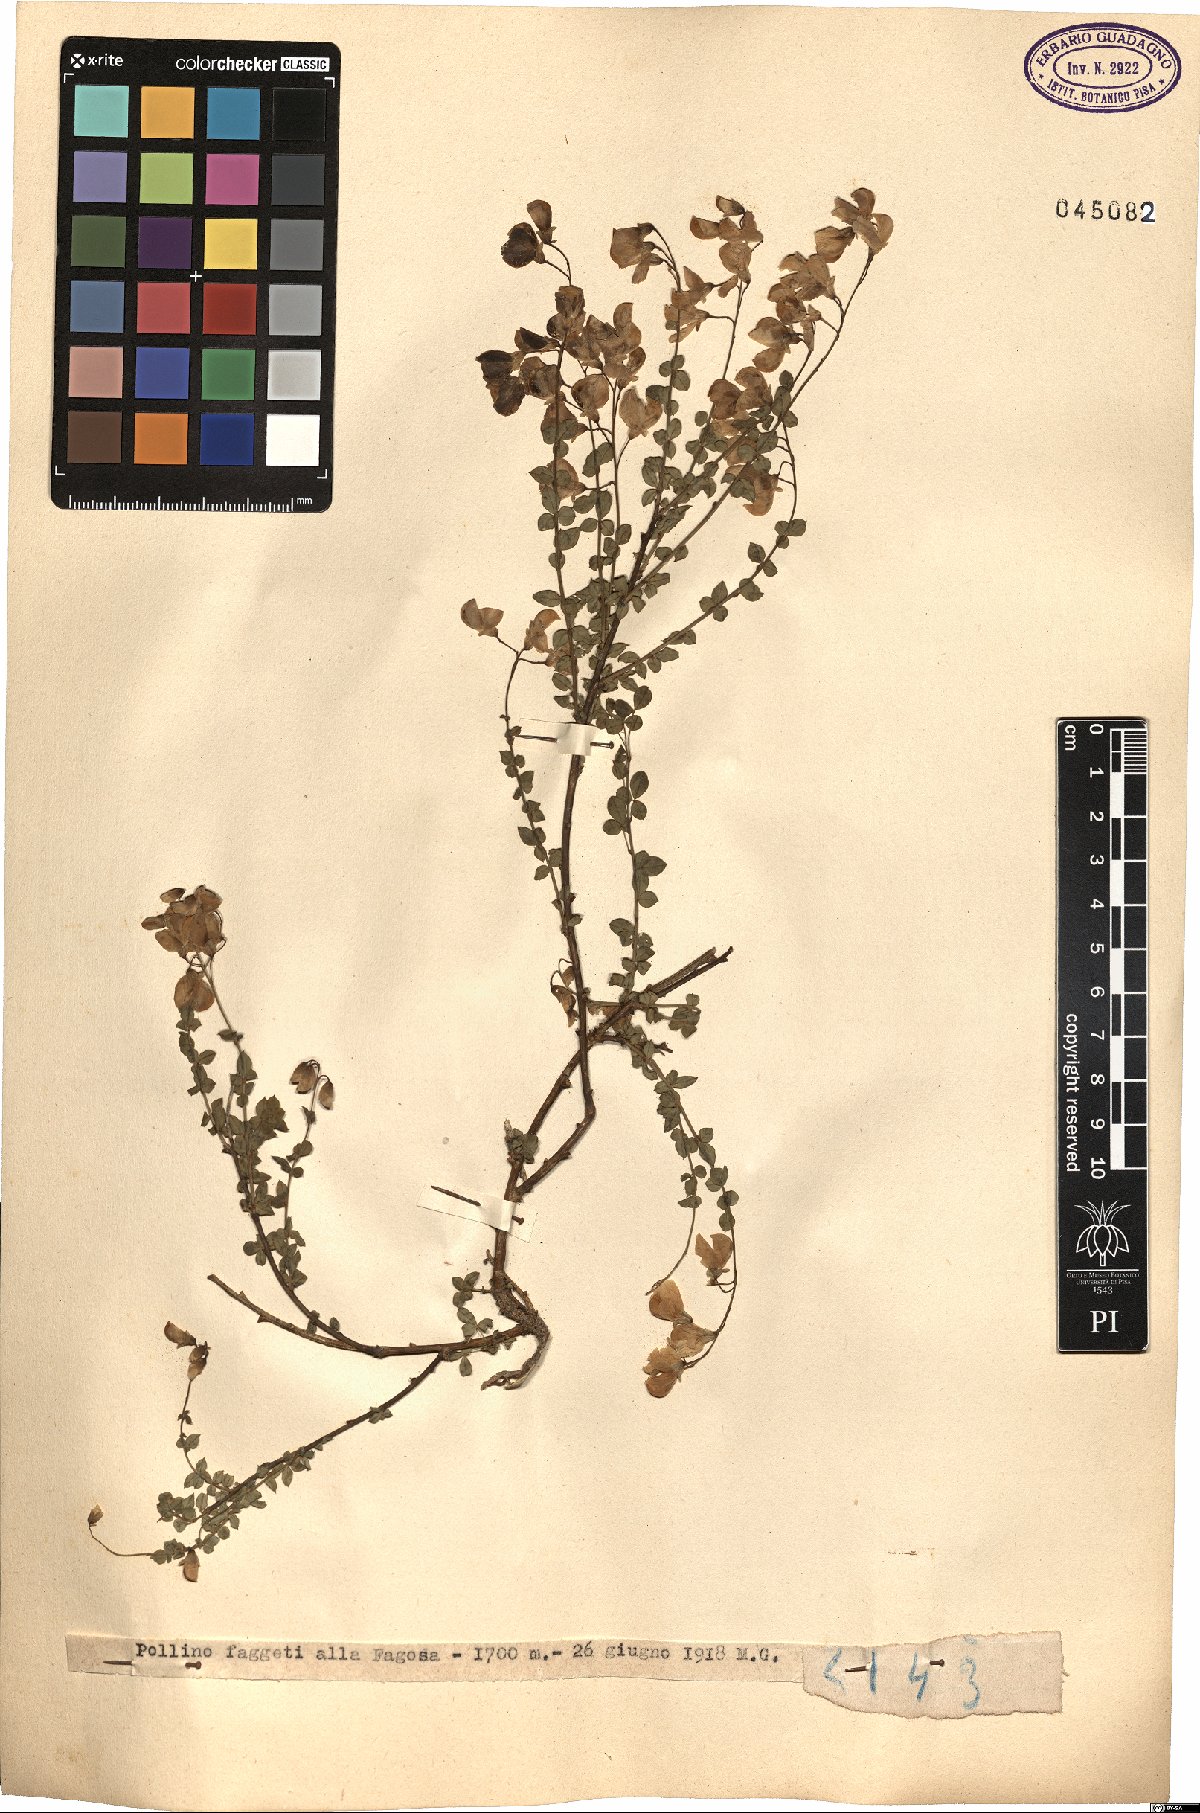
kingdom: Plantae
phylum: Tracheophyta
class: Magnoliopsida
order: Fabales
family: Fabaceae
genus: Cytisus
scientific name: Cytisus
